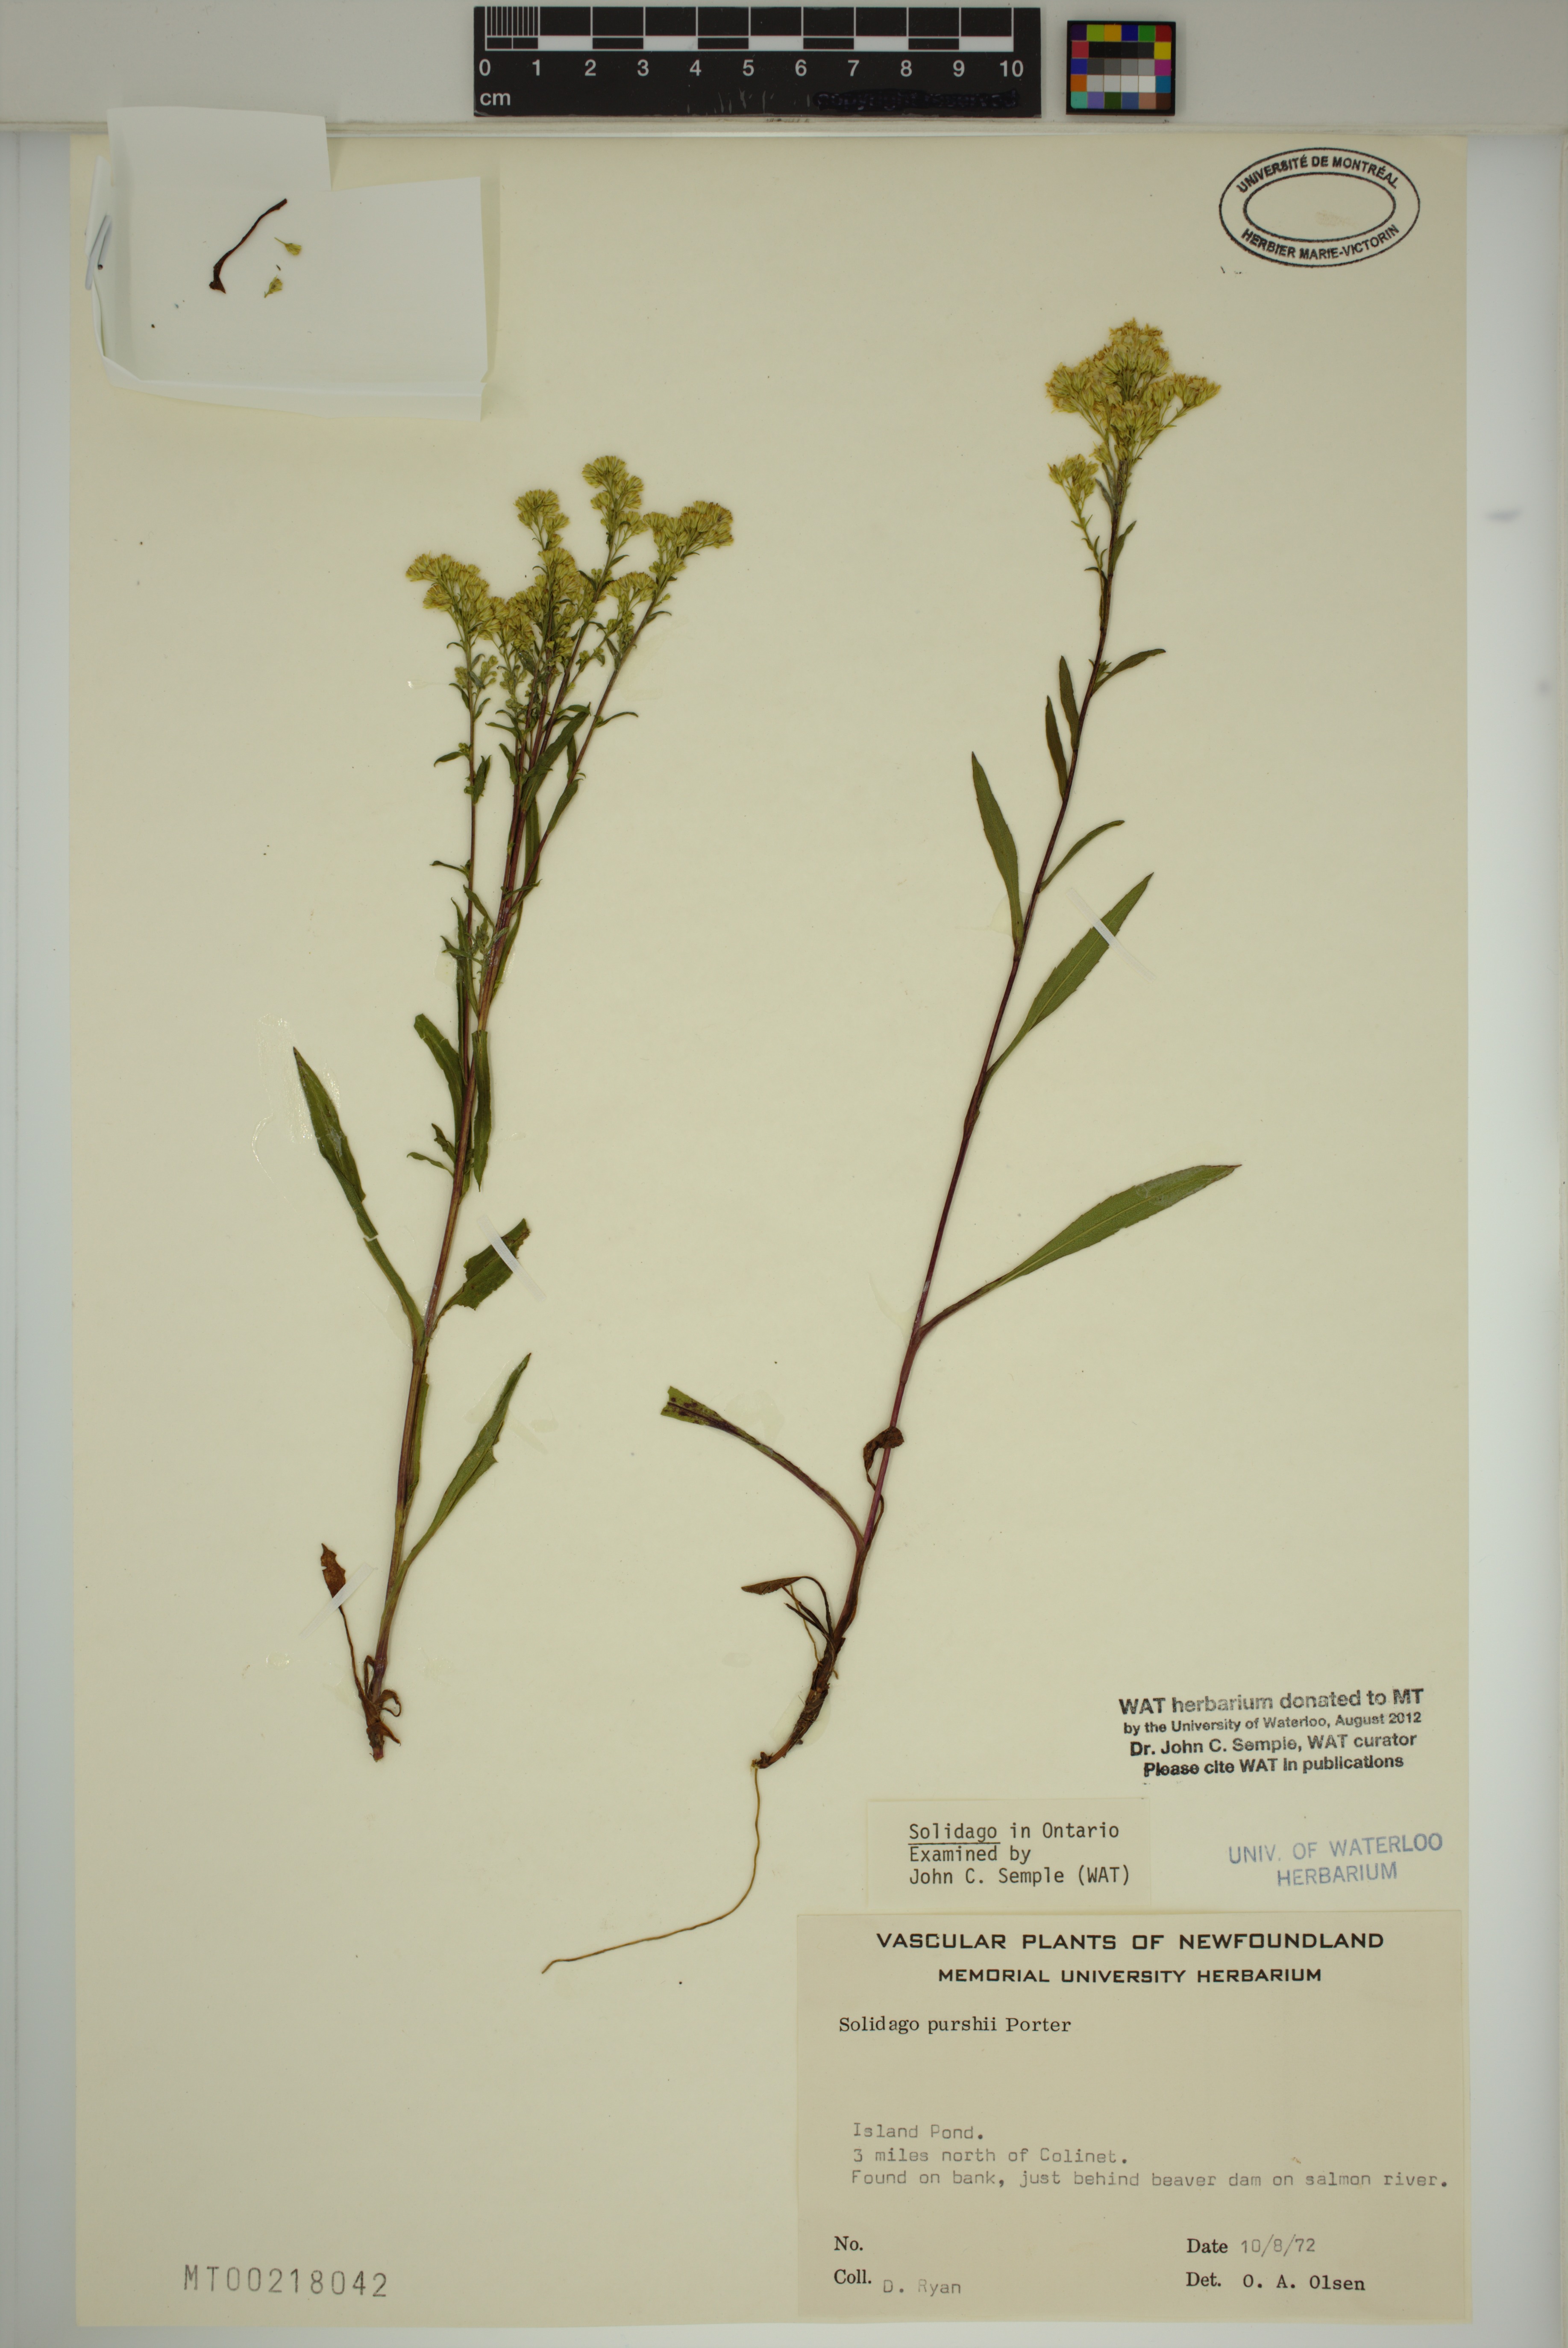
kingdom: Plantae
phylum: Tracheophyta
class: Magnoliopsida
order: Asterales
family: Asteraceae
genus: Solidago
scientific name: Solidago uliginosa
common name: Bog goldenrod
